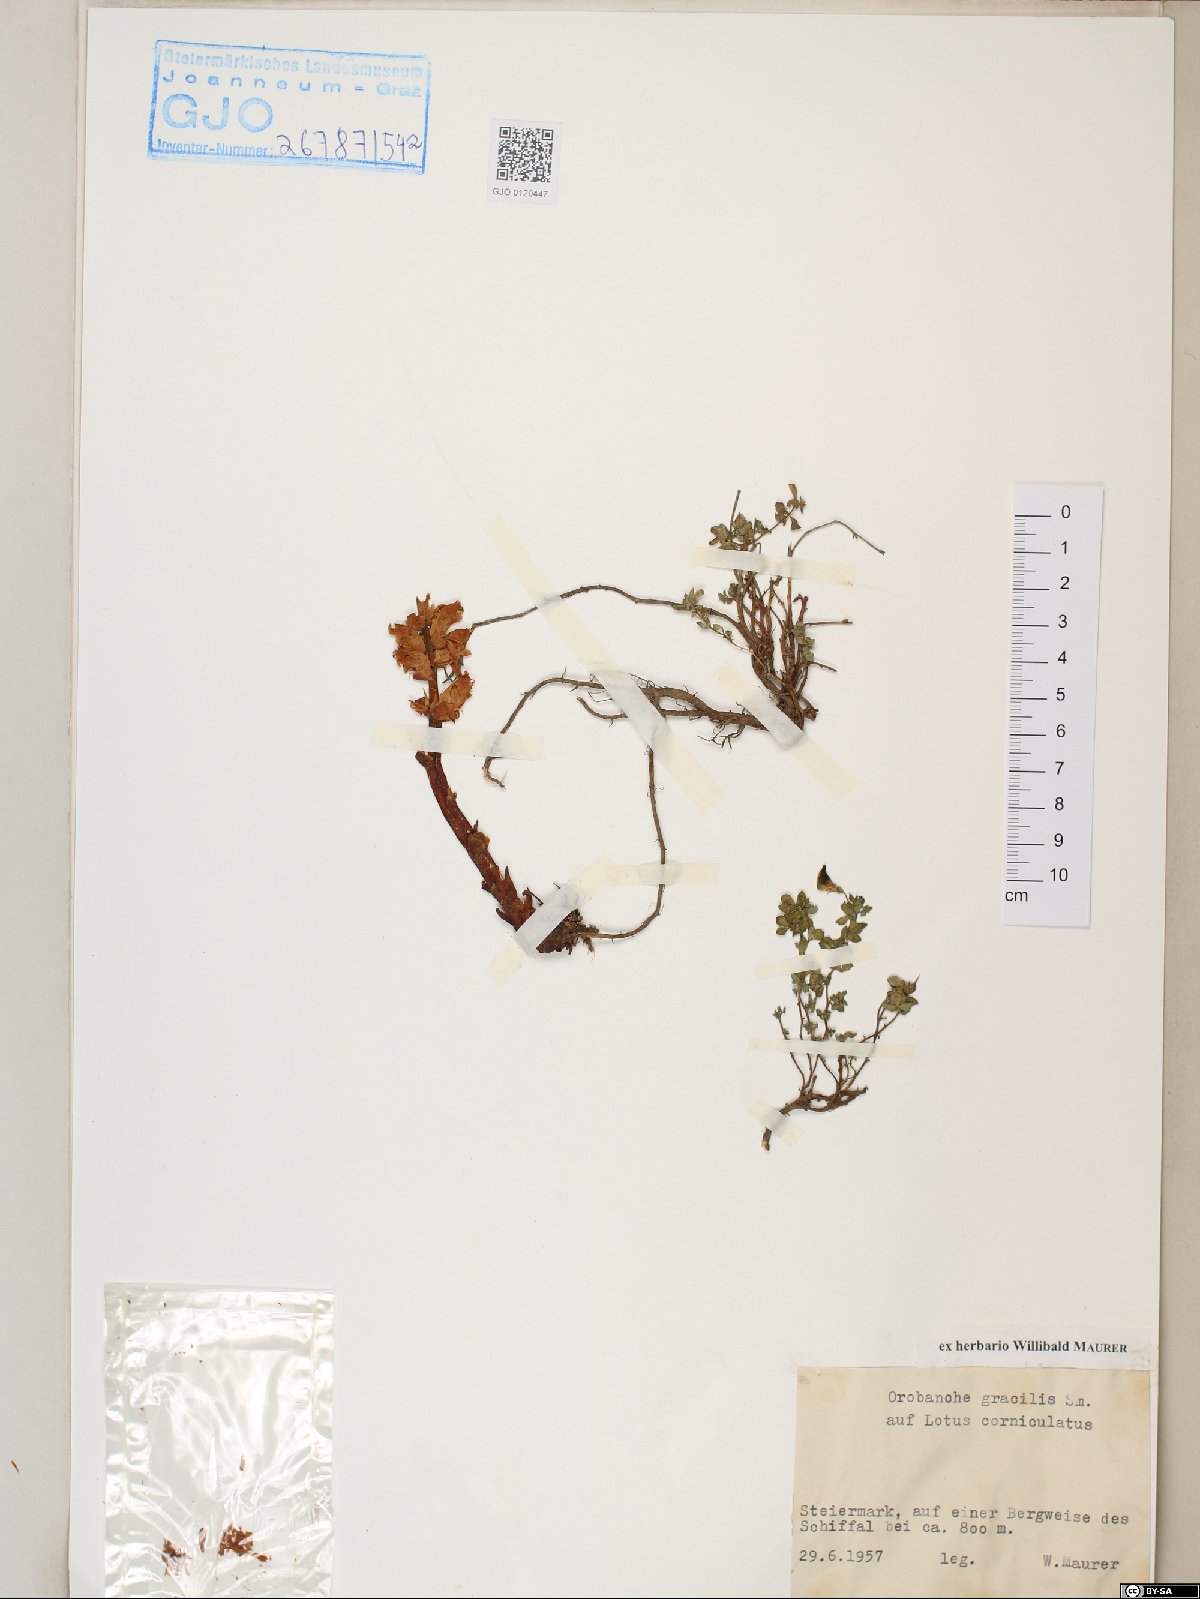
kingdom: Plantae
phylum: Tracheophyta
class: Magnoliopsida
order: Lamiales
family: Orobanchaceae
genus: Orobanche
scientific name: Orobanche gracilis
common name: Slender broomrape
